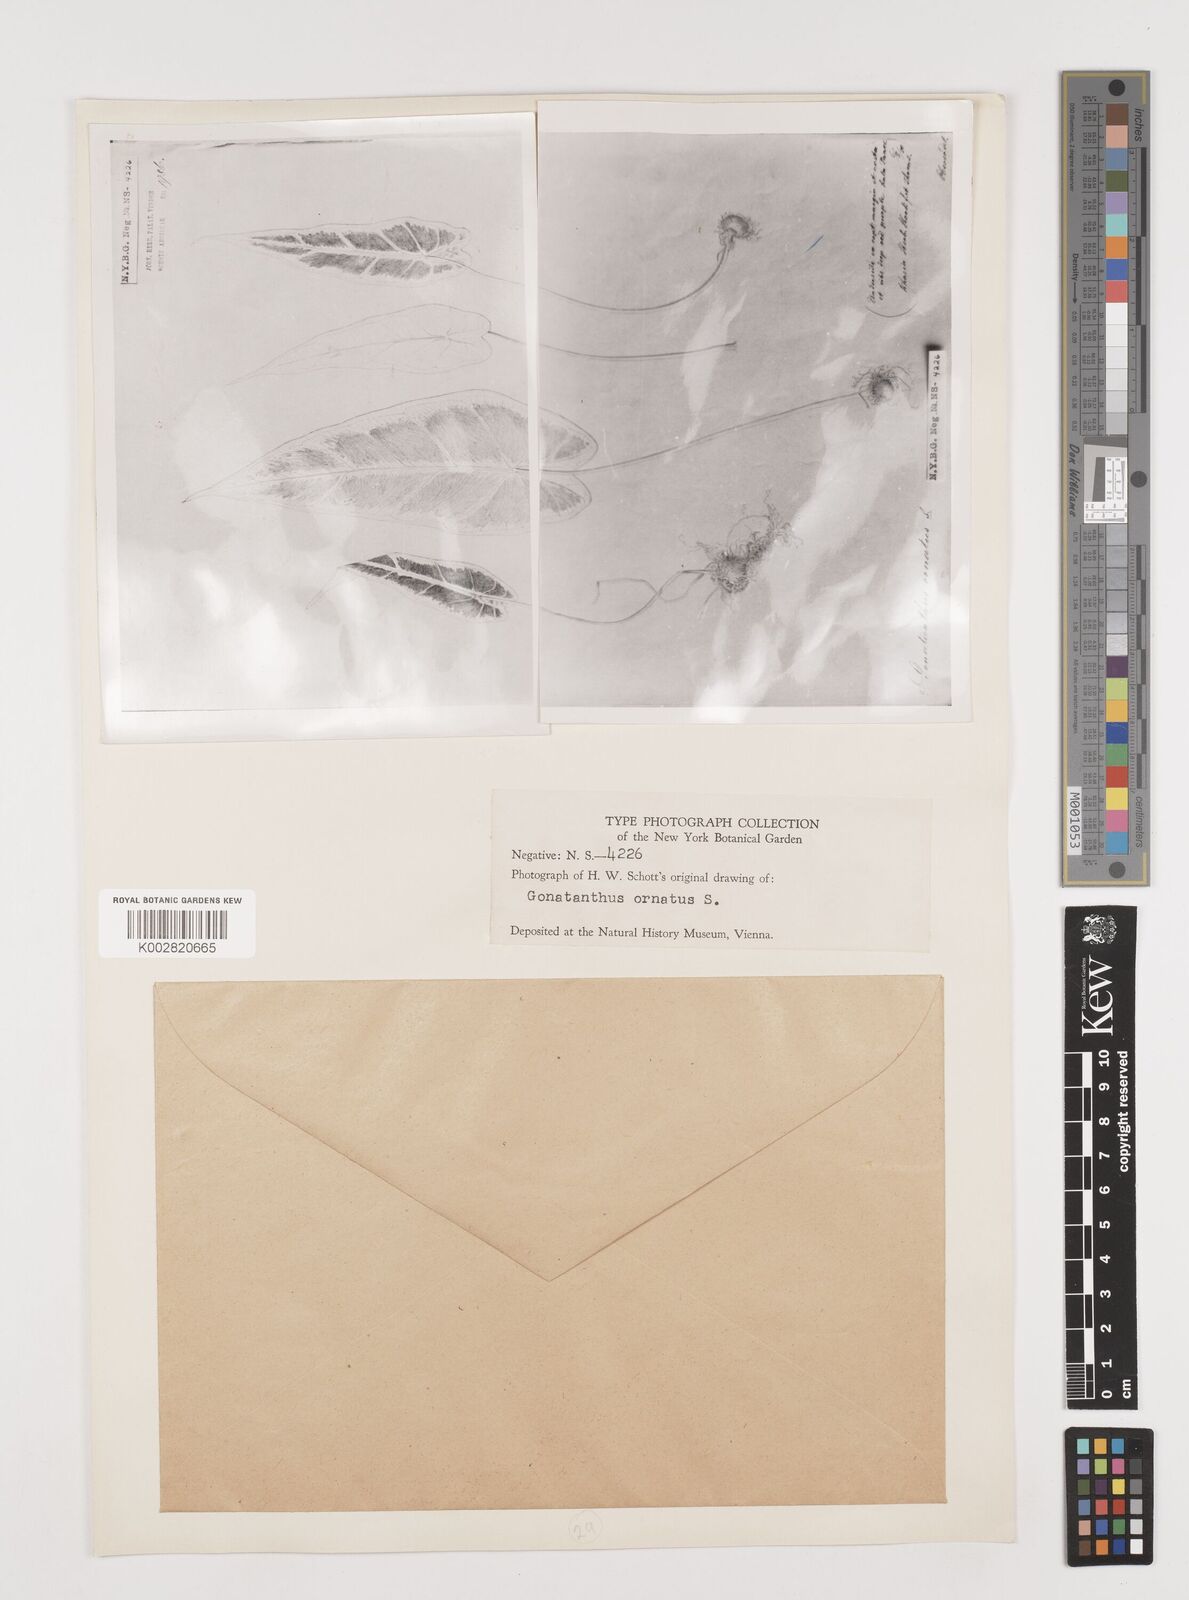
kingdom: Plantae
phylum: Tracheophyta
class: Liliopsida
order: Alismatales
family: Araceae
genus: Remusatia
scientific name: Remusatia hookeriana
